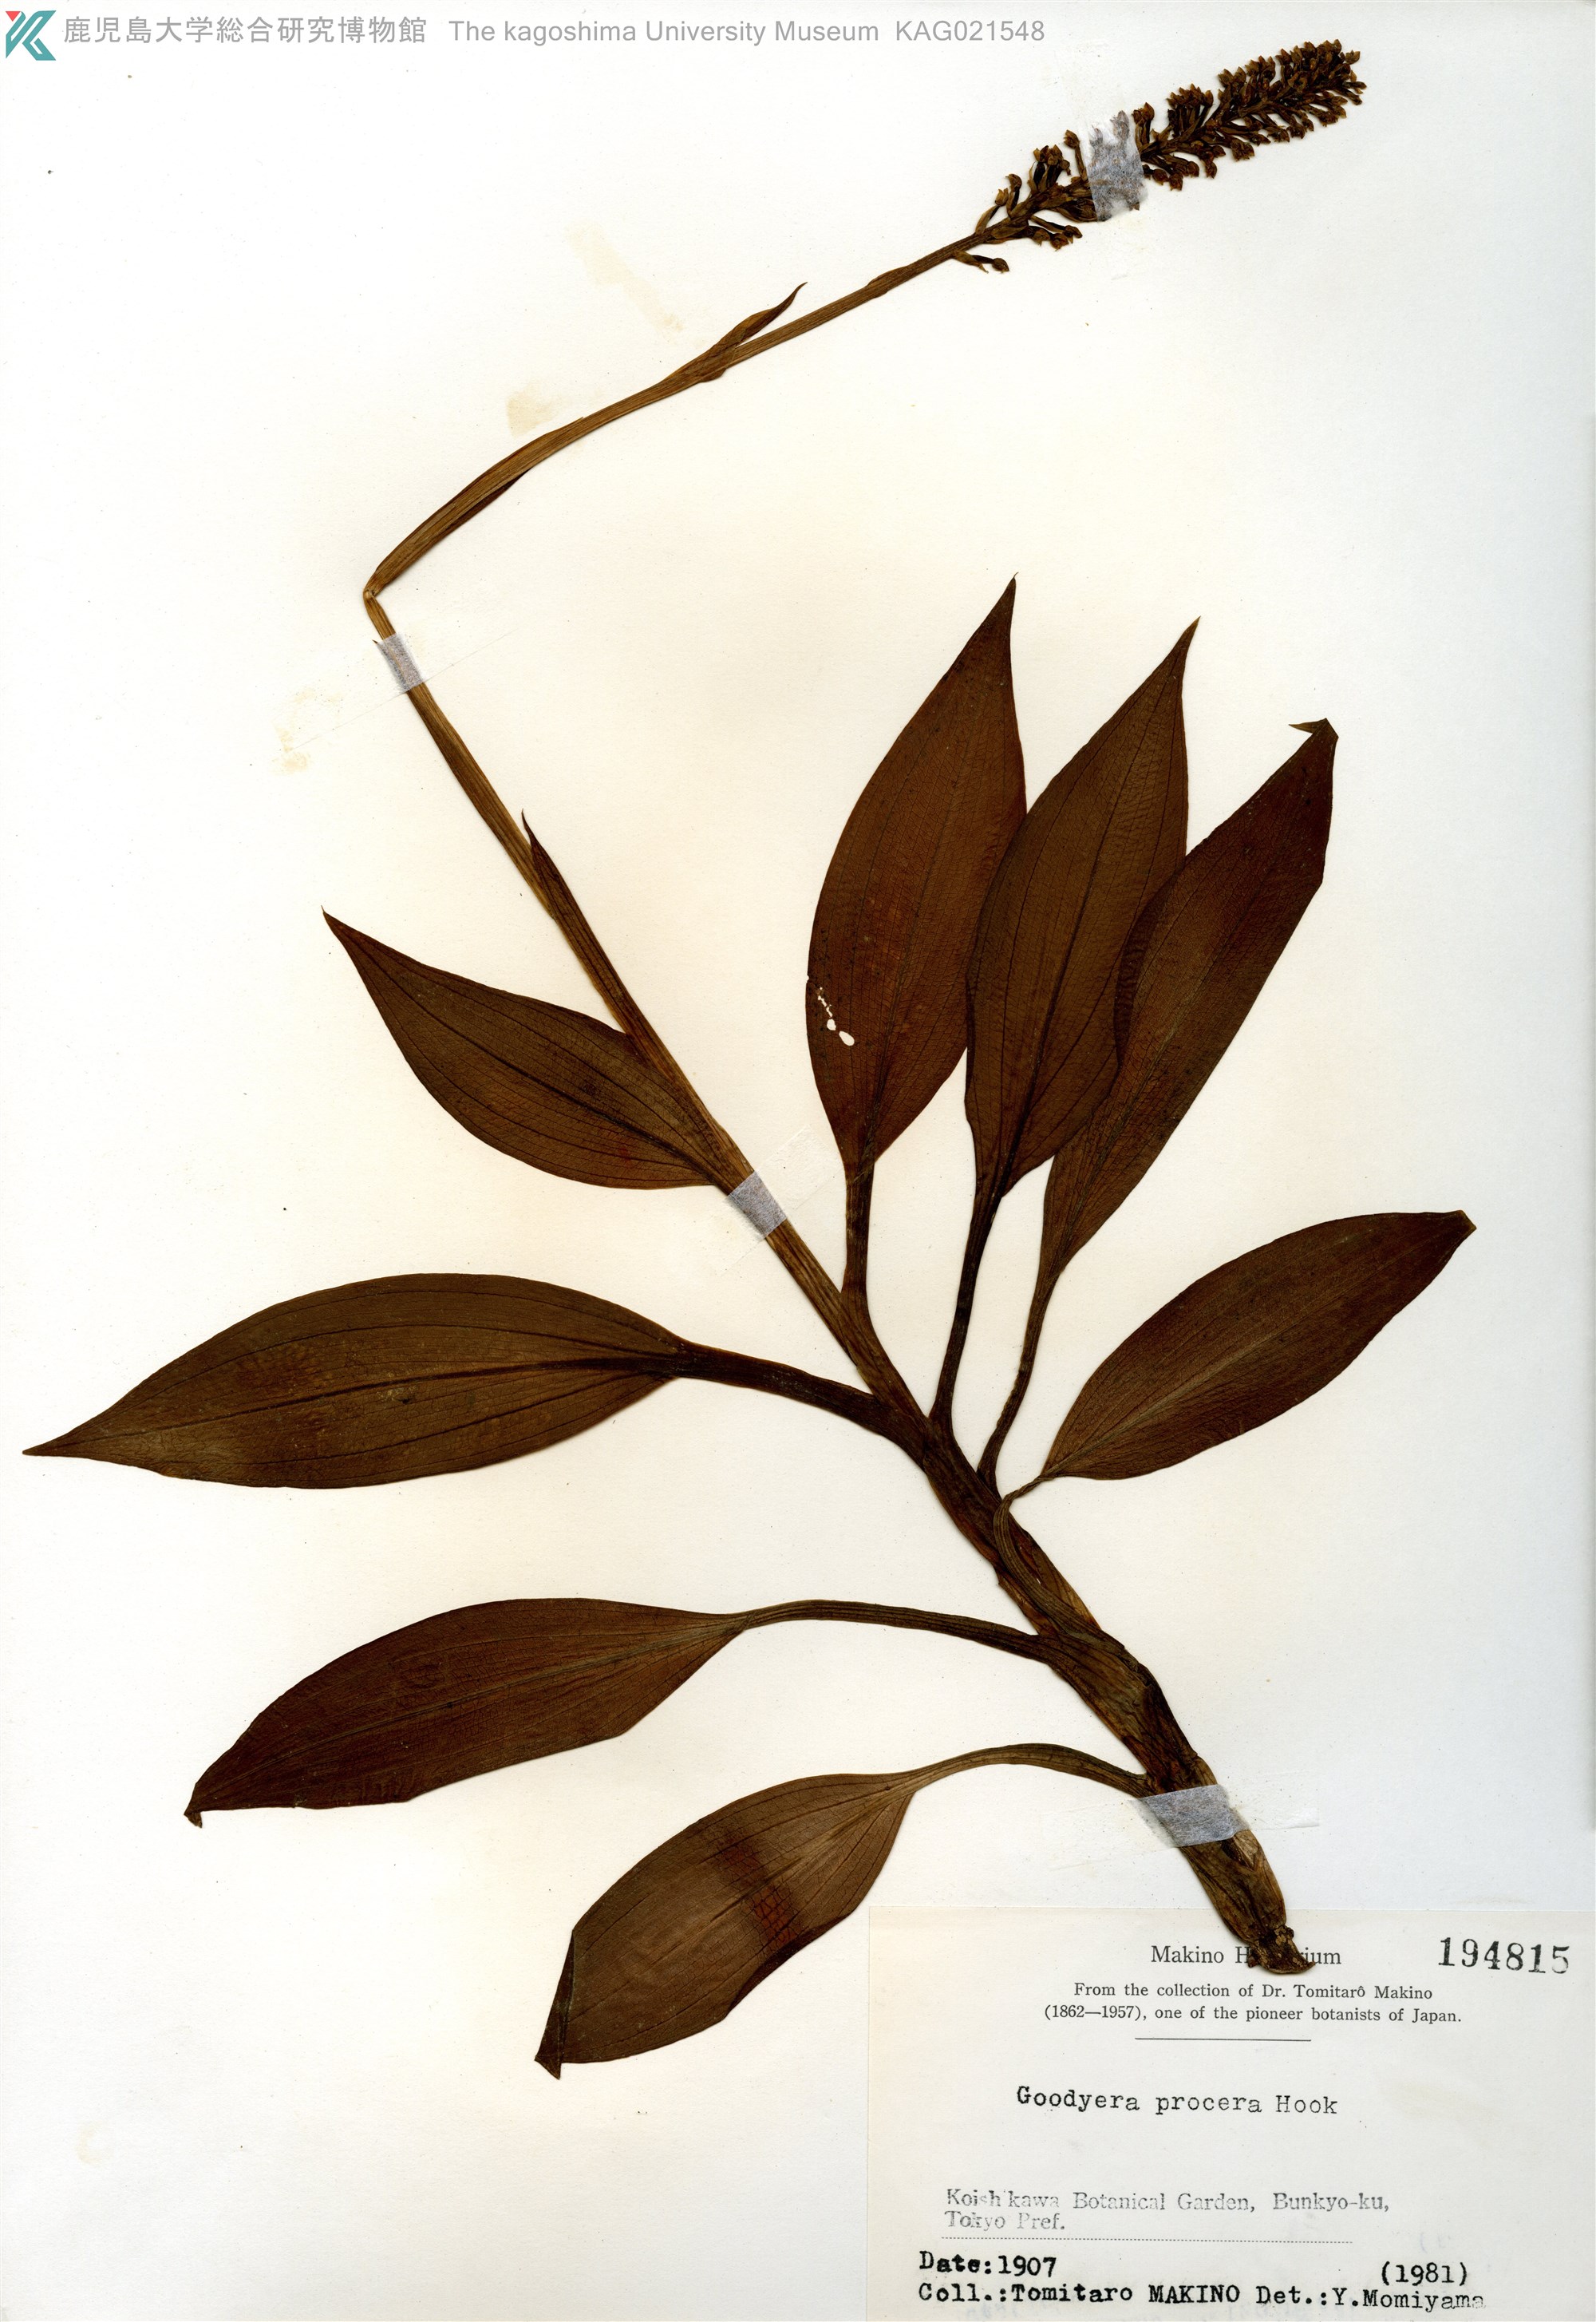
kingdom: Plantae
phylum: Tracheophyta
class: Liliopsida
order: Asparagales
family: Orchidaceae
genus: Goodyera
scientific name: Goodyera procera
